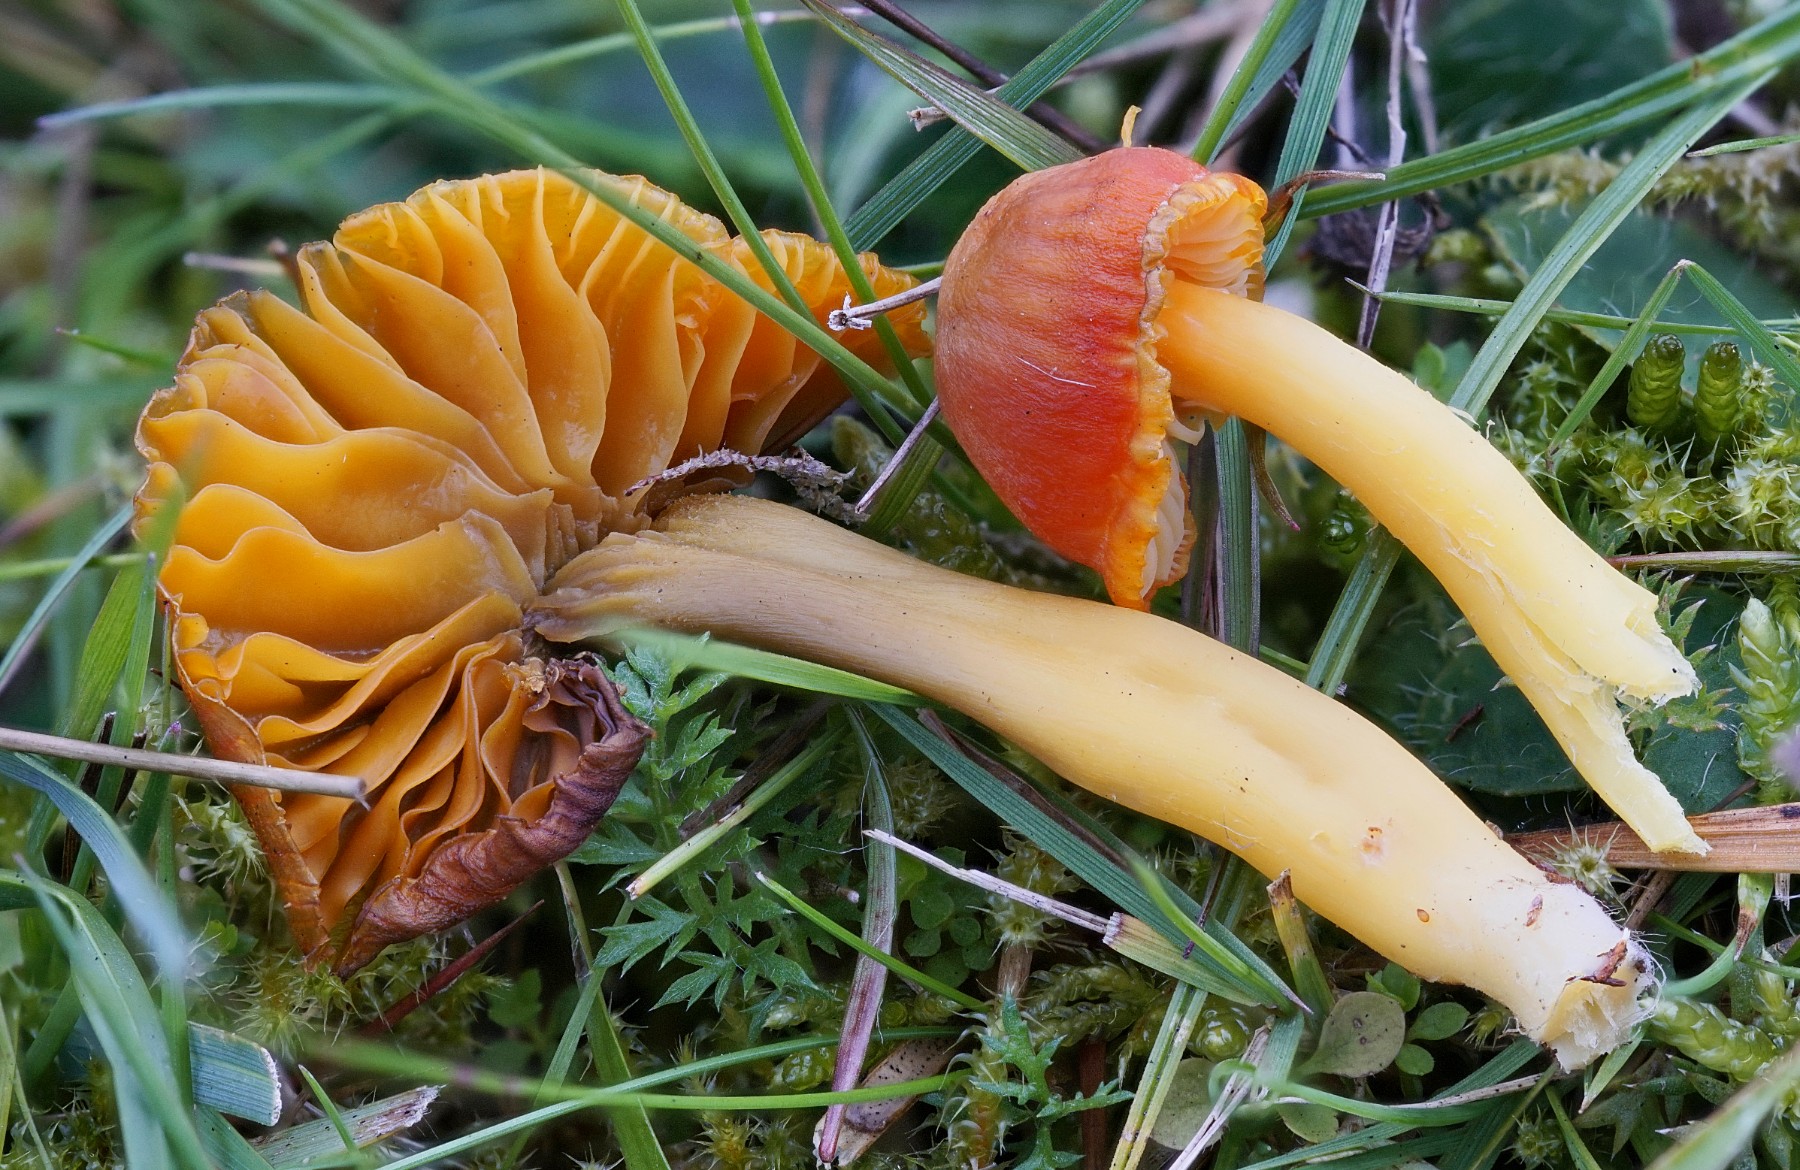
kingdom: Fungi
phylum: Basidiomycota
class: Agaricomycetes
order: Agaricales
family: Hygrophoraceae
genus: Hygrocybe
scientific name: Hygrocybe
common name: vokshat
